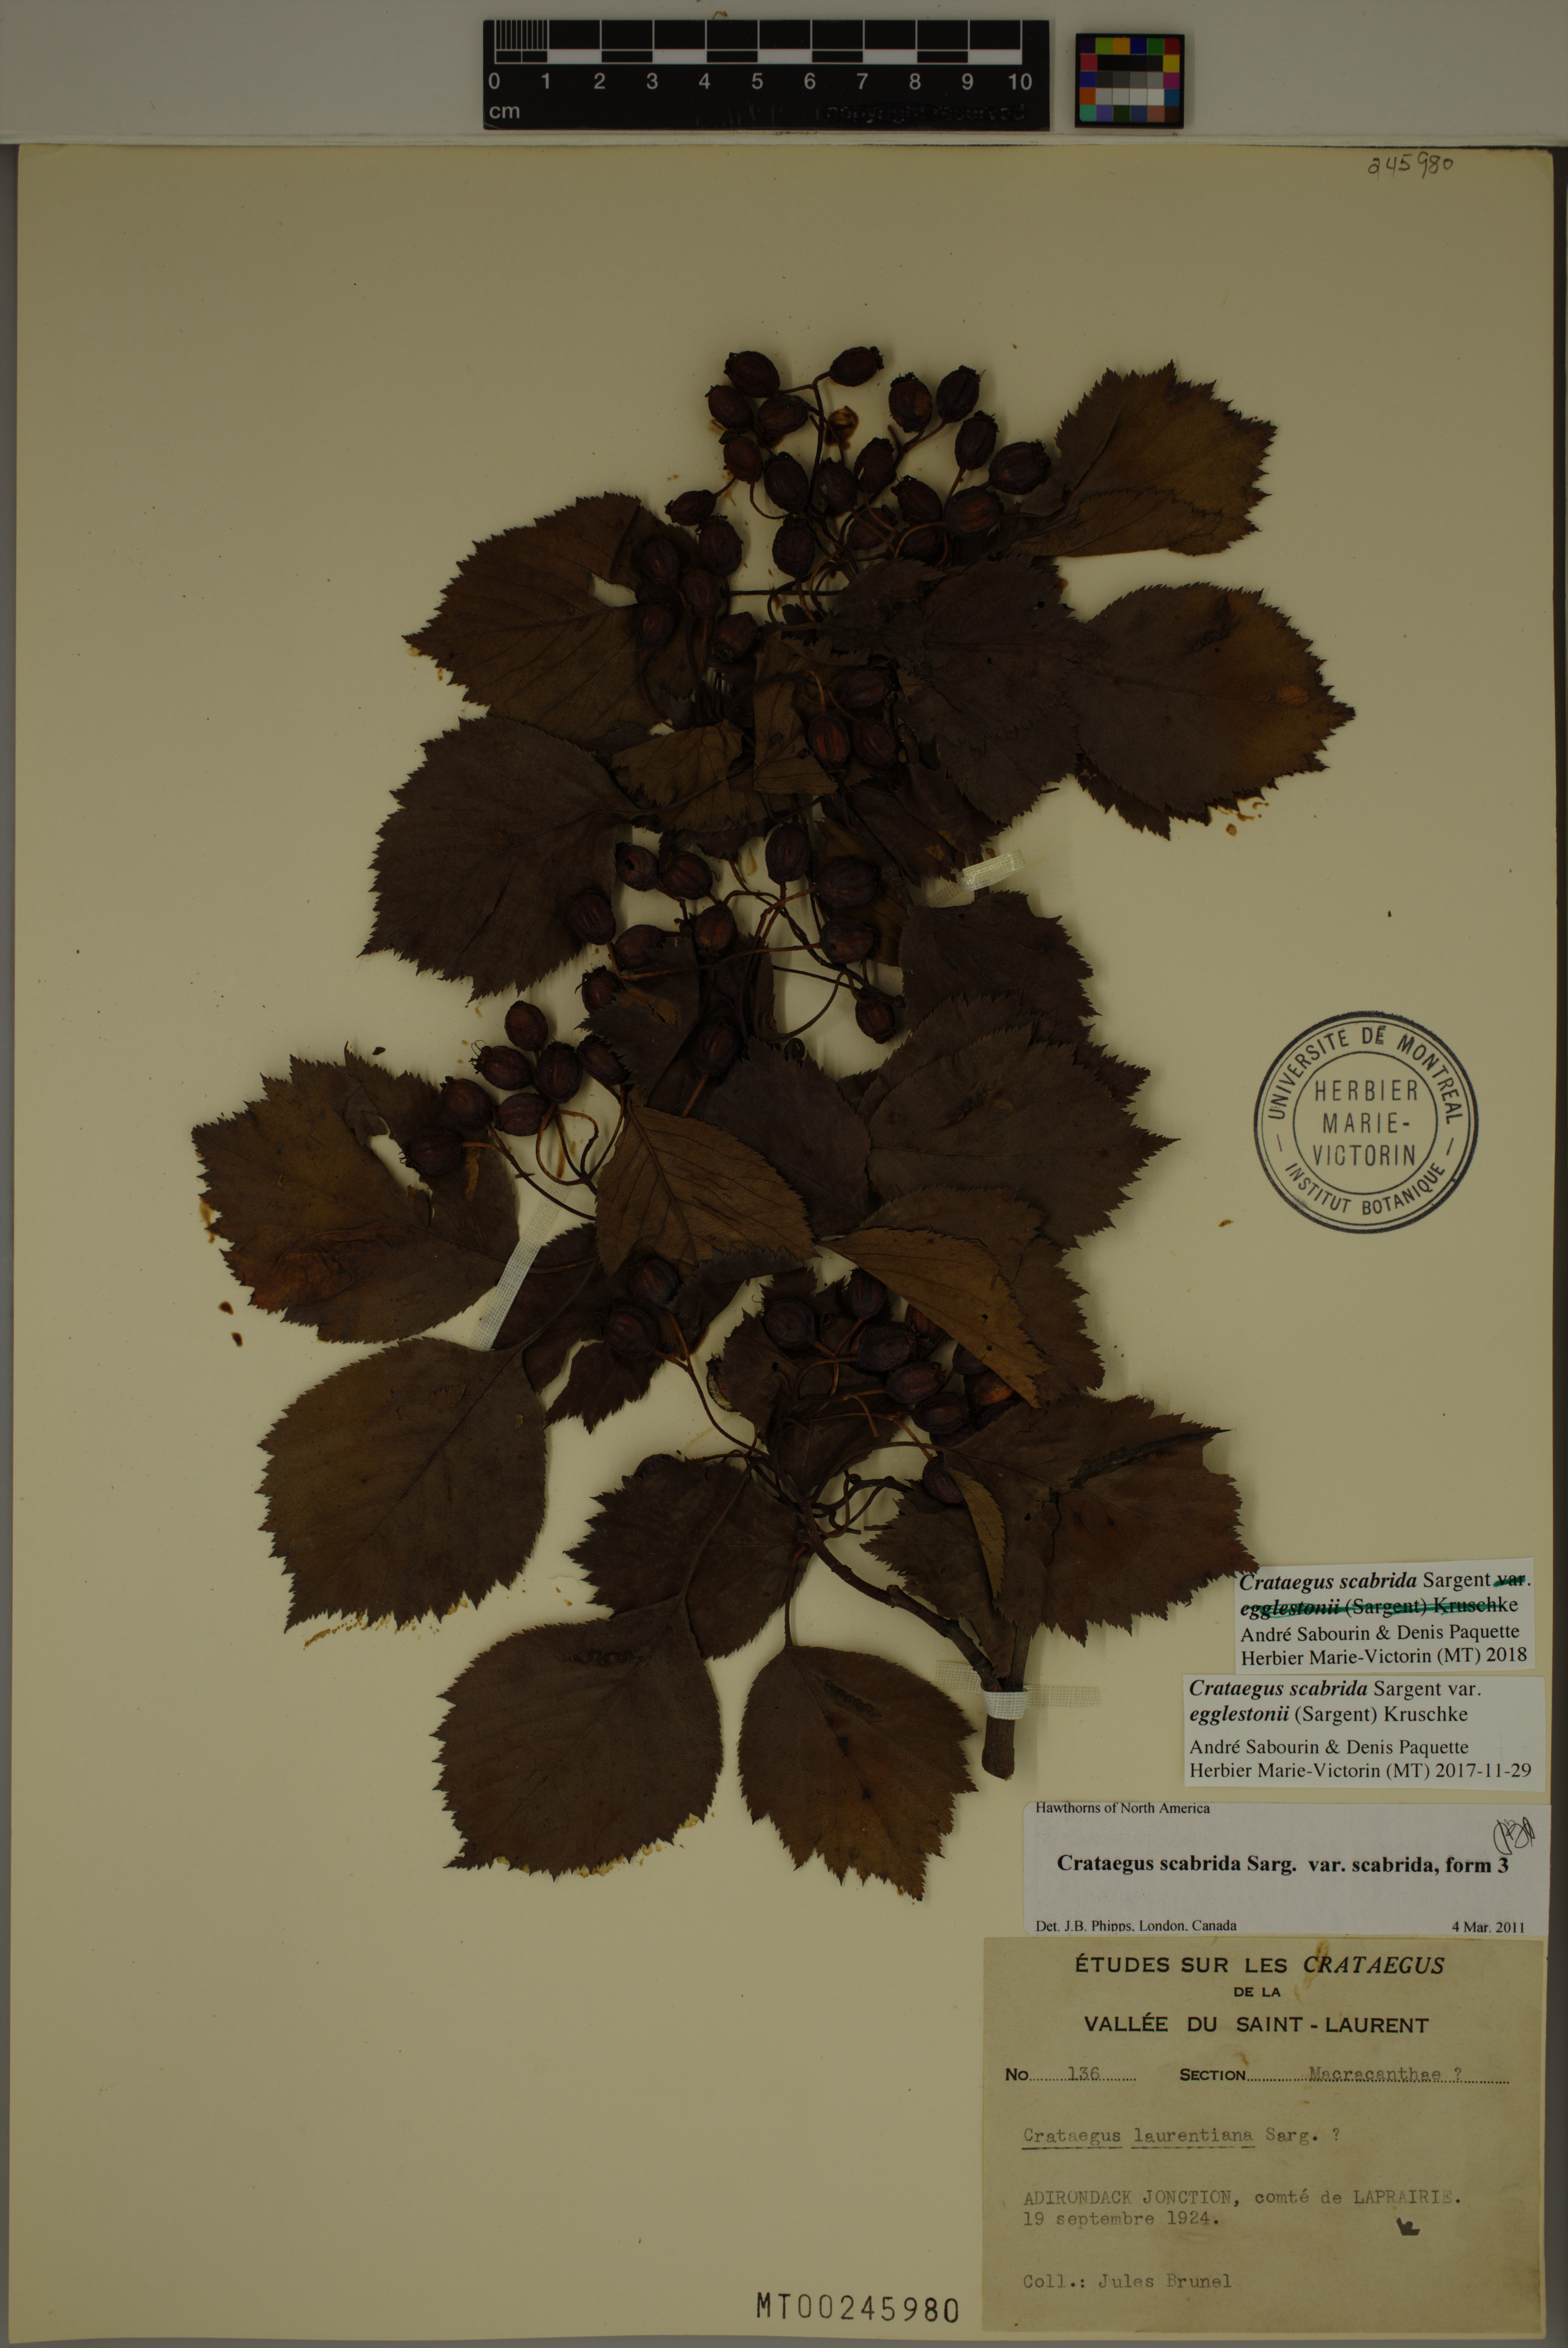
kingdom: Plantae
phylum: Tracheophyta
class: Magnoliopsida
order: Rosales
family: Rosaceae
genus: Crataegus
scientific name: Crataegus scabrida
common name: Rough hawthorn
